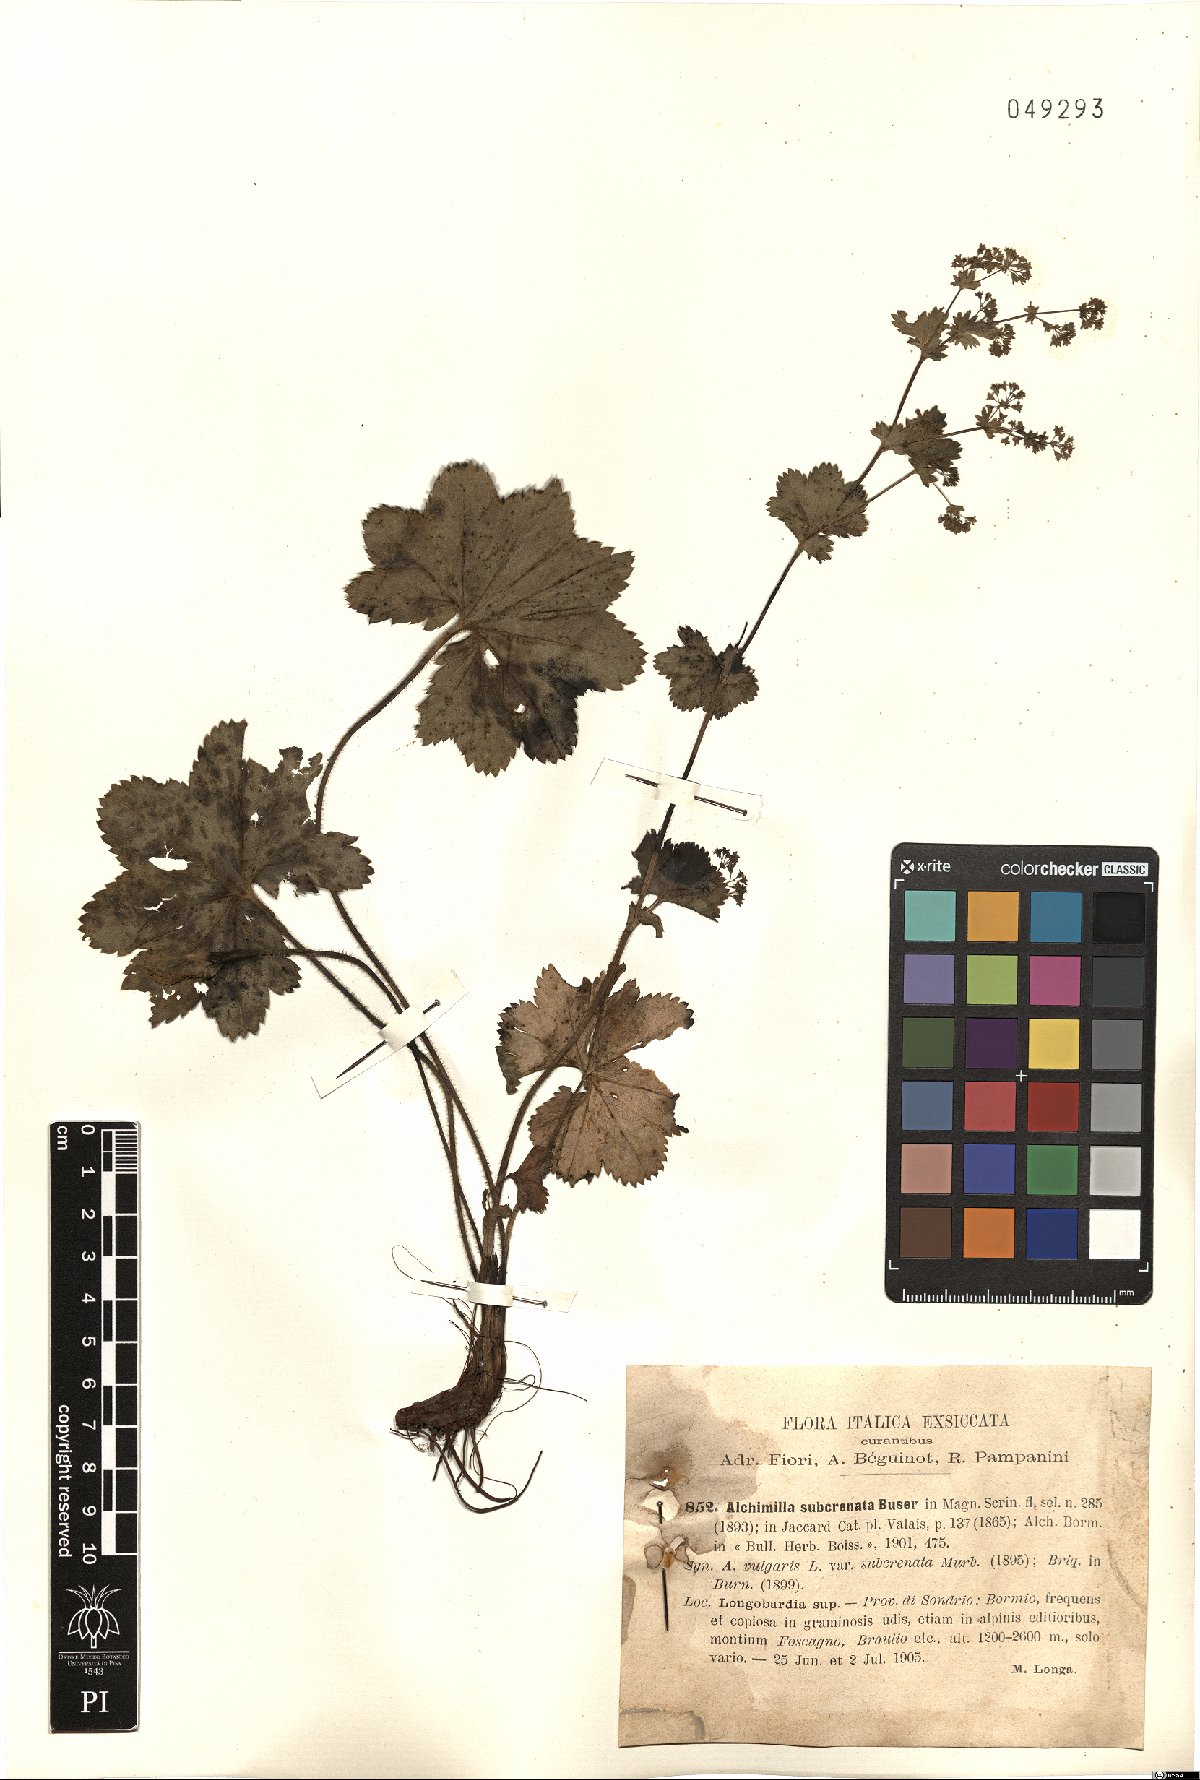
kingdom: Plantae
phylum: Tracheophyta
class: Magnoliopsida
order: Rosales
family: Rosaceae
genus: Alchemilla
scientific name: Alchemilla subcrenata
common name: Broadtooth lady's mantle
